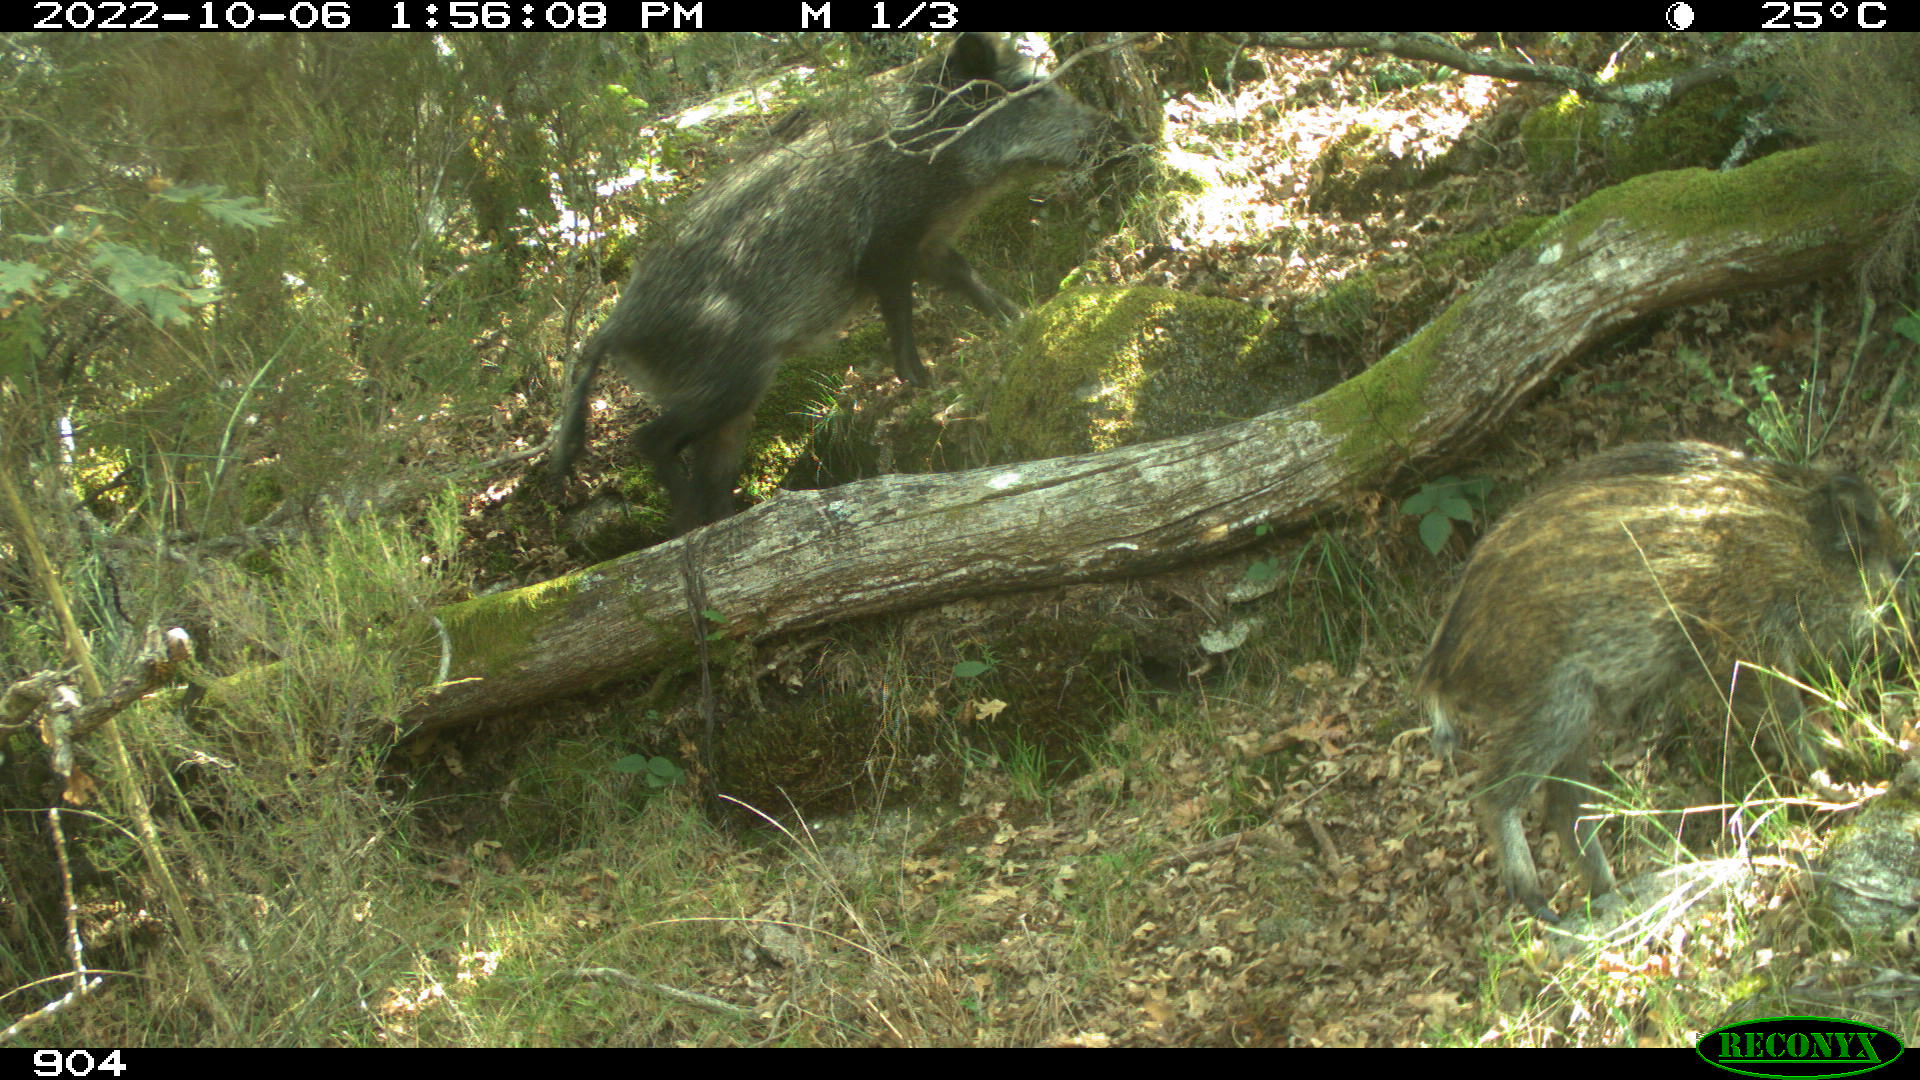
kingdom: Animalia
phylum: Chordata
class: Mammalia
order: Artiodactyla
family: Suidae
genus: Sus
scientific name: Sus scrofa
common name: Wild boar
